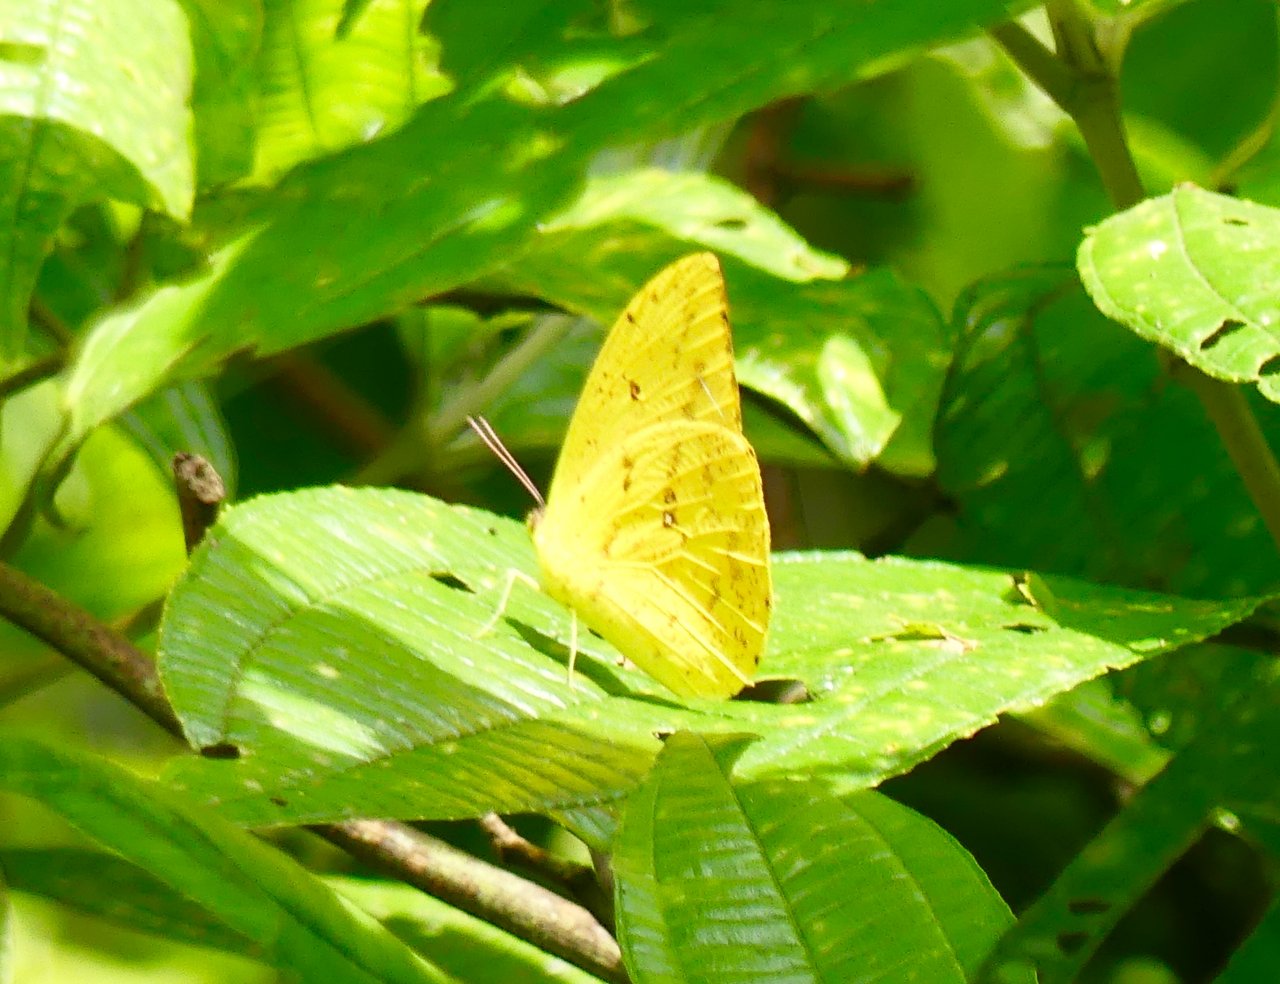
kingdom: Animalia
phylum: Arthropoda
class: Insecta
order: Lepidoptera
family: Pieridae
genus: Phoebis
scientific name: Phoebis argante
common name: Apricot Sulphur
